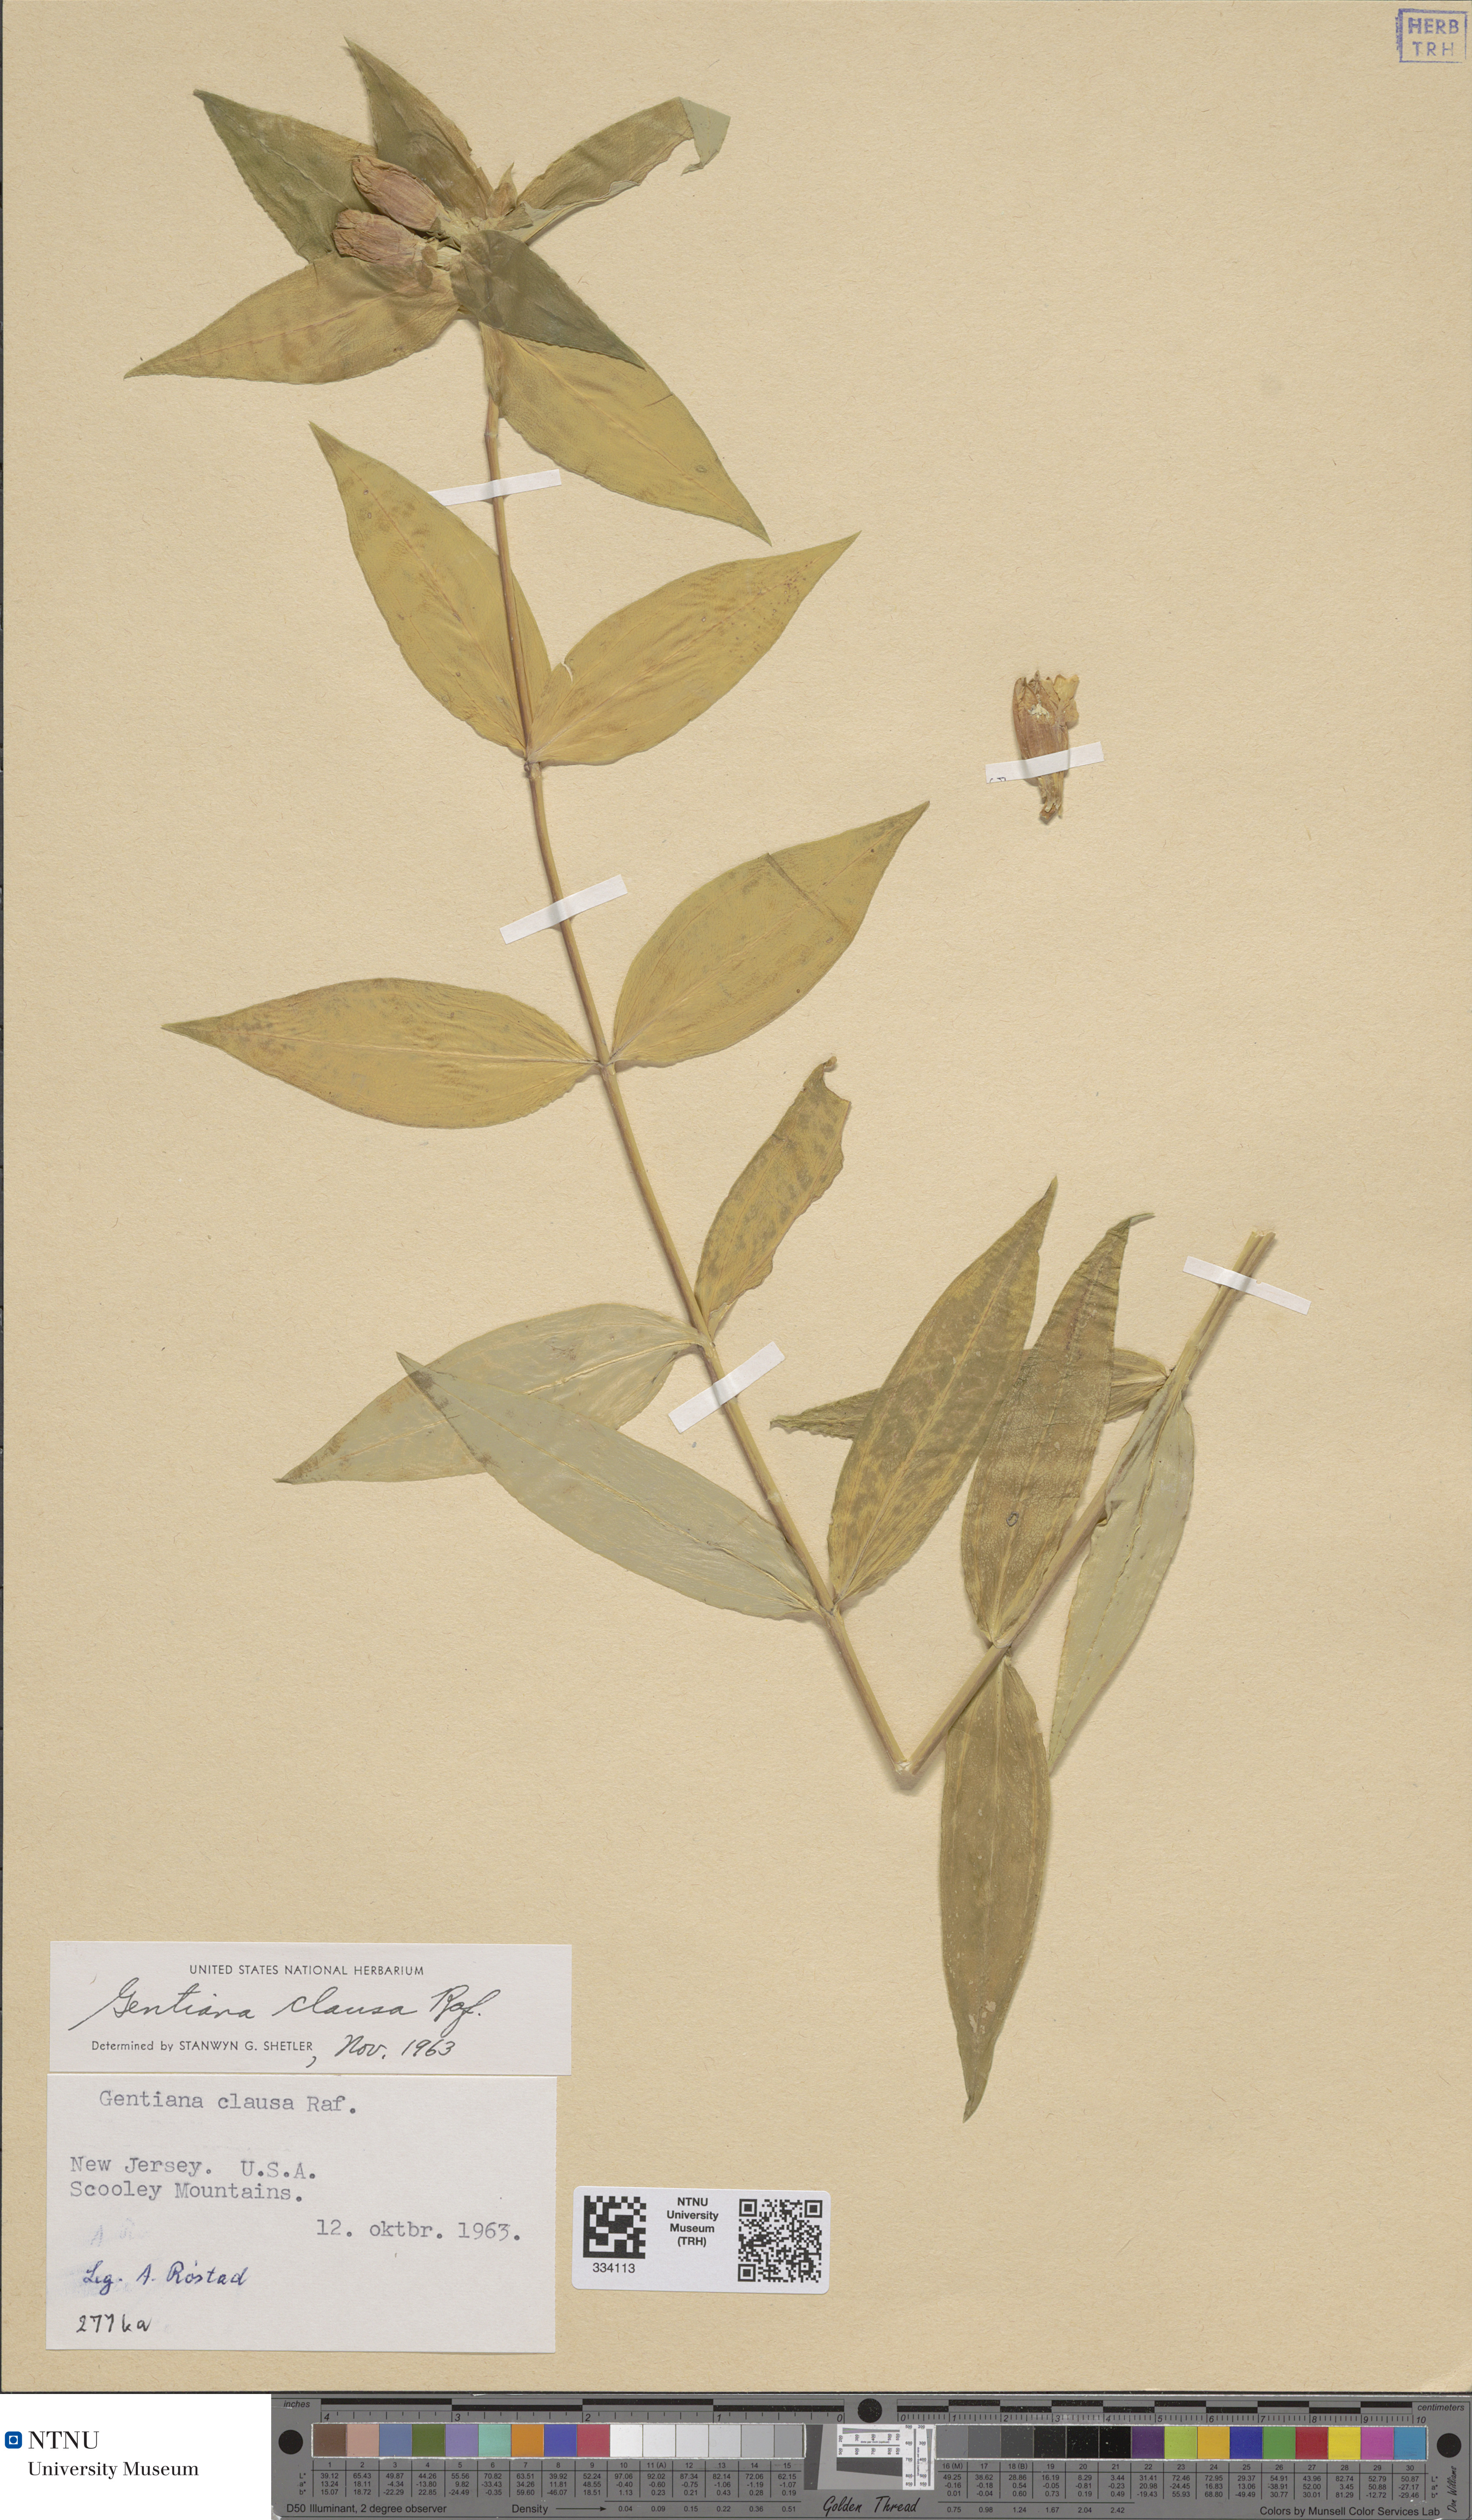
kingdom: Plantae
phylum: Tracheophyta
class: Magnoliopsida
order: Gentianales
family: Gentianaceae
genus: Gentiana
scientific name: Gentiana clausa
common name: Blind gentian
